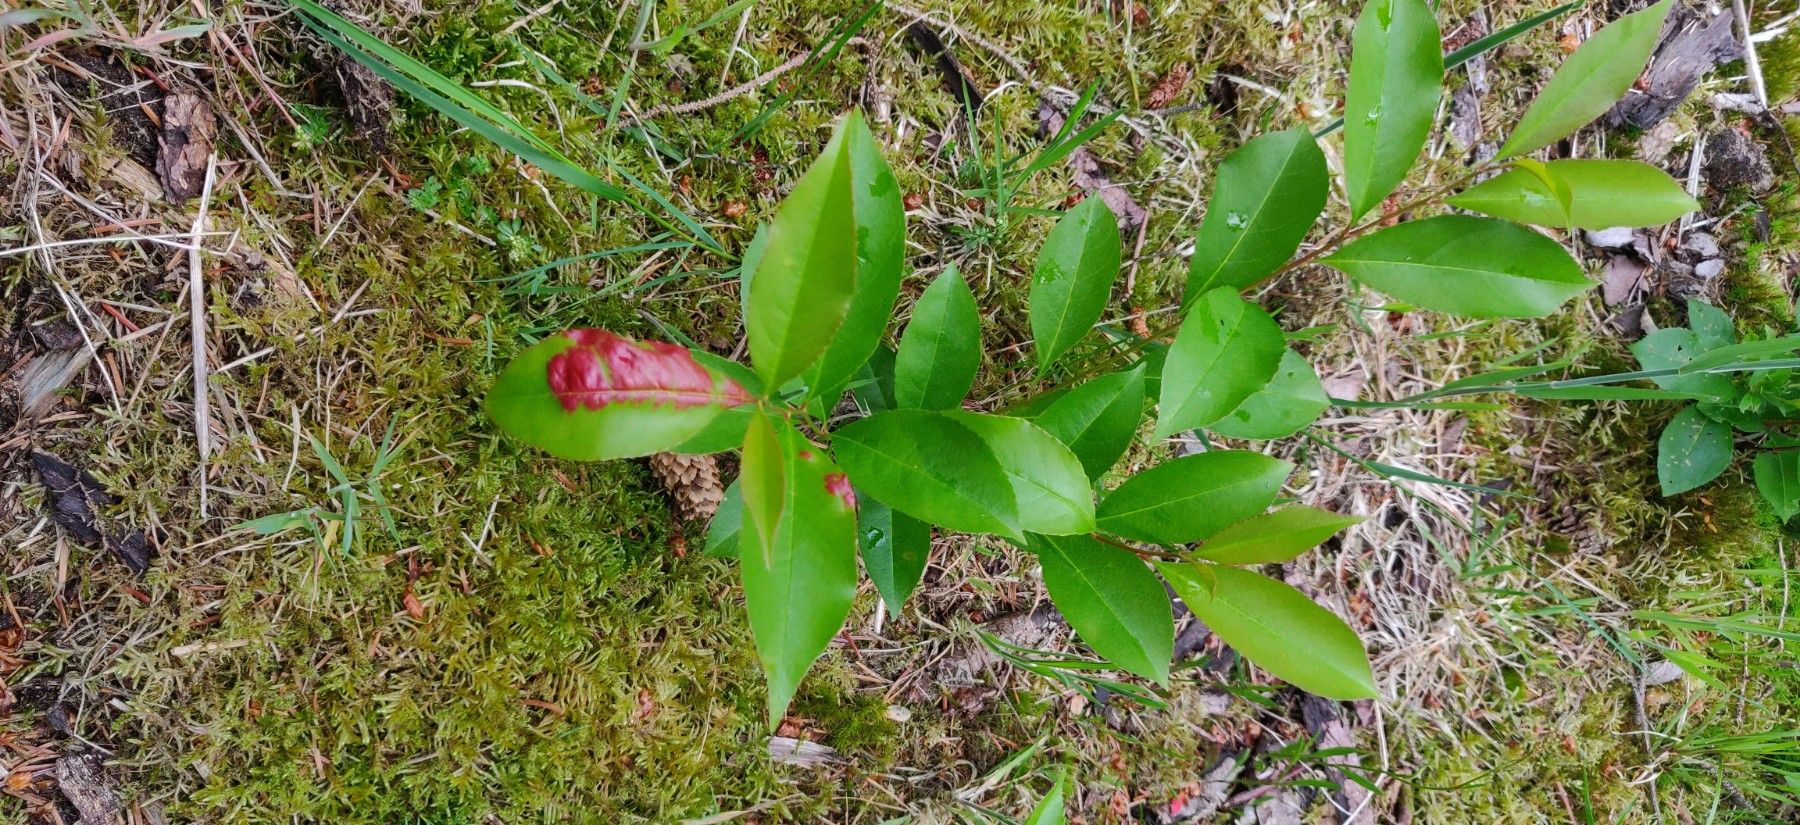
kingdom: Fungi
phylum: Ascomycota
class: Taphrinomycetes
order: Taphrinales
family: Taphrinaceae
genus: Taphrina
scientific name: Taphrina farlowii
